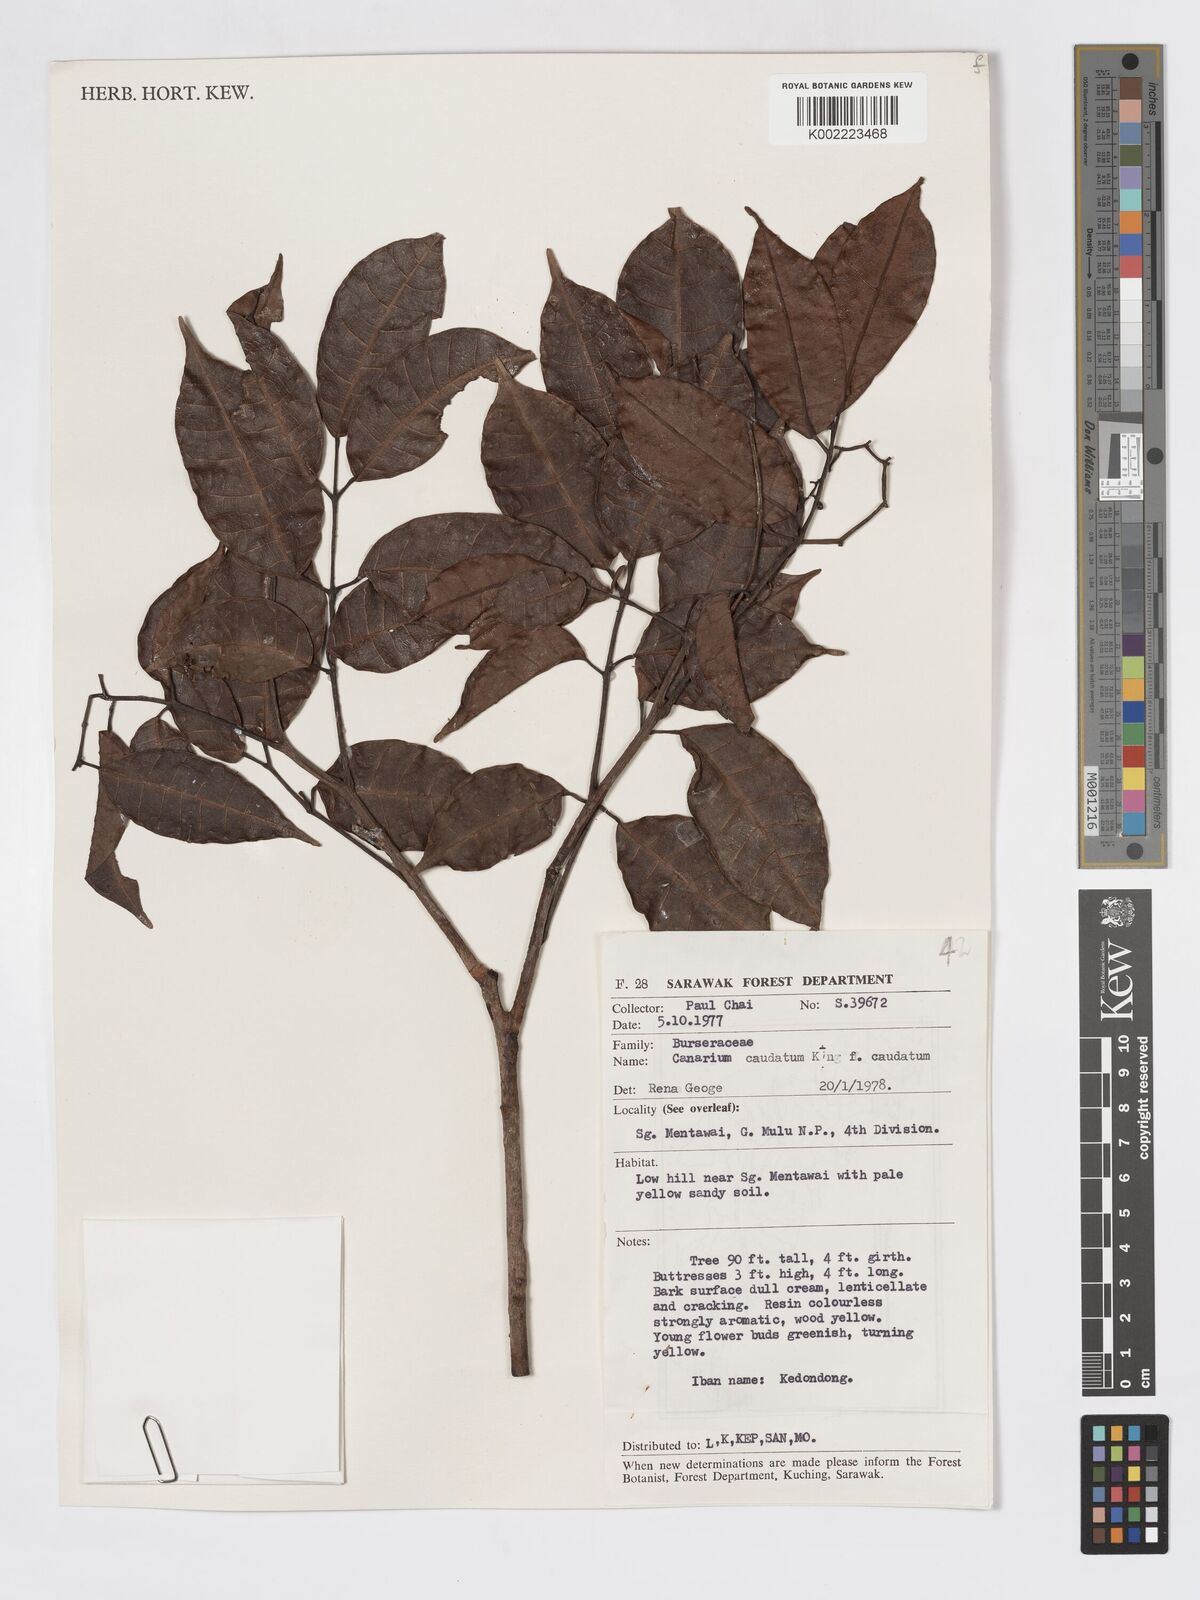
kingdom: Plantae
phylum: Tracheophyta
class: Magnoliopsida
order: Sapindales
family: Burseraceae
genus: Canarium
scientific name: Canarium caudatum
